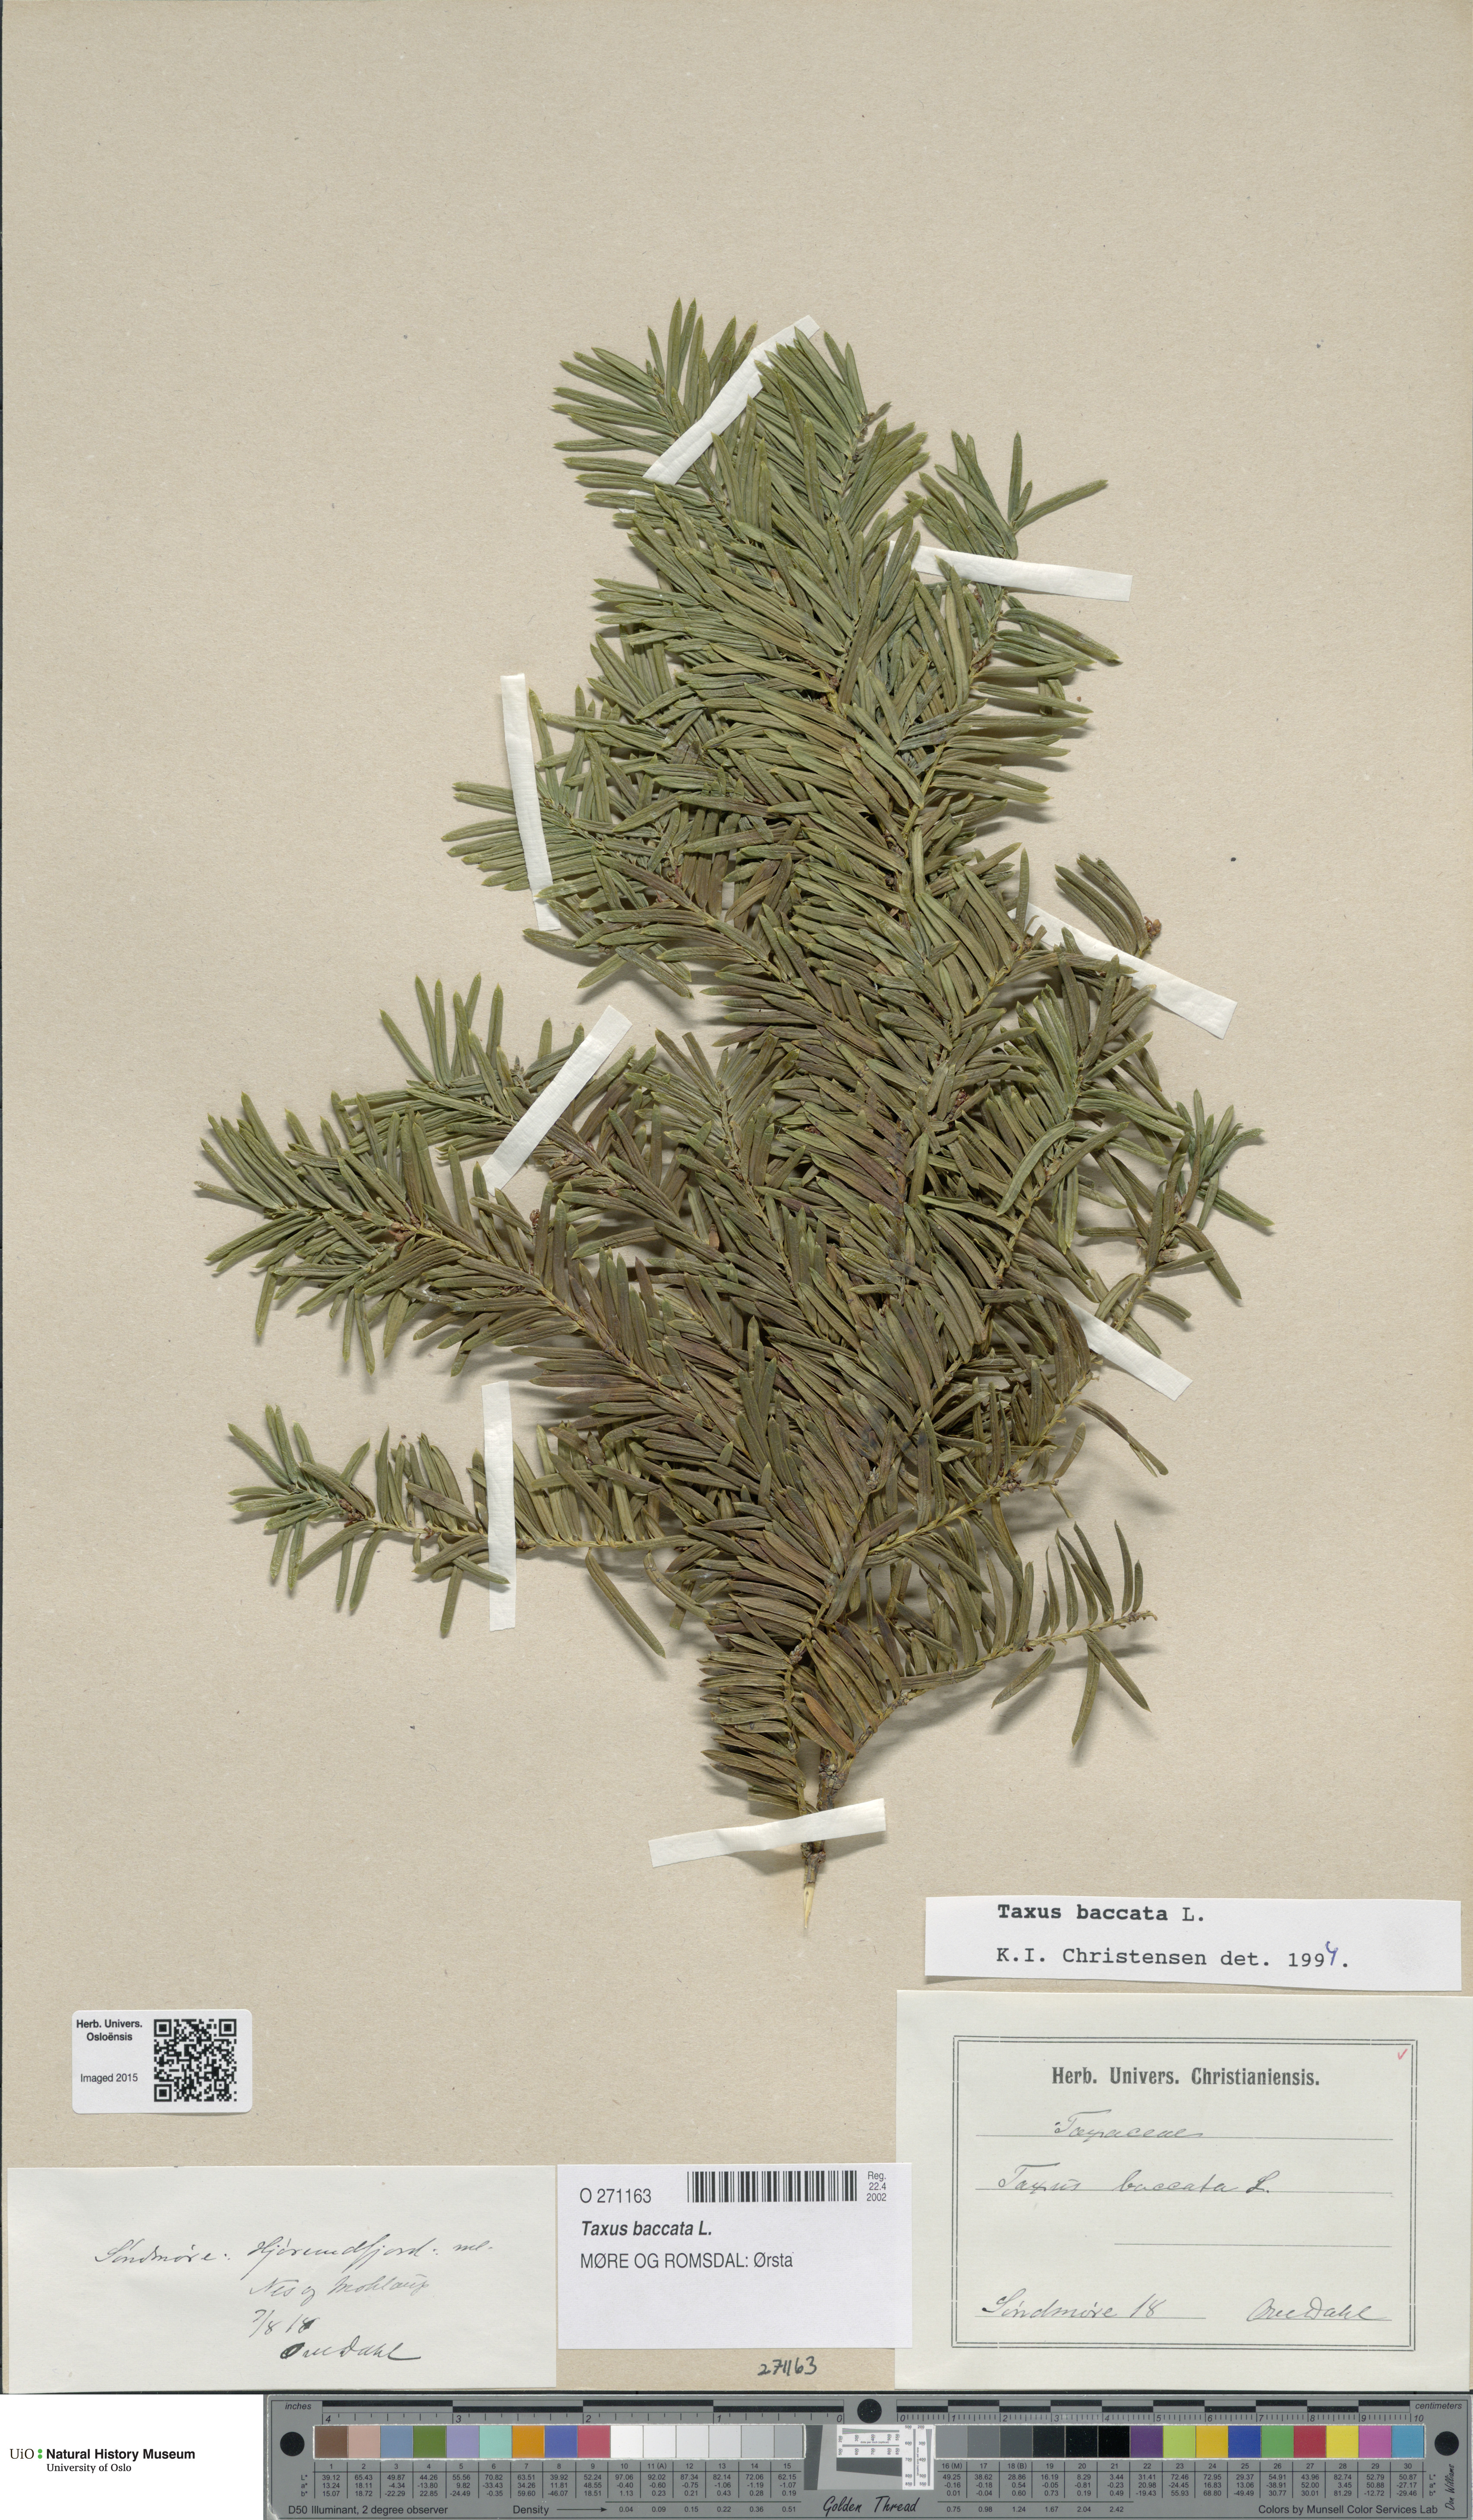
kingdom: Plantae
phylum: Tracheophyta
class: Pinopsida
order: Pinales
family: Taxaceae
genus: Taxus
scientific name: Taxus baccata
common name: Yew
